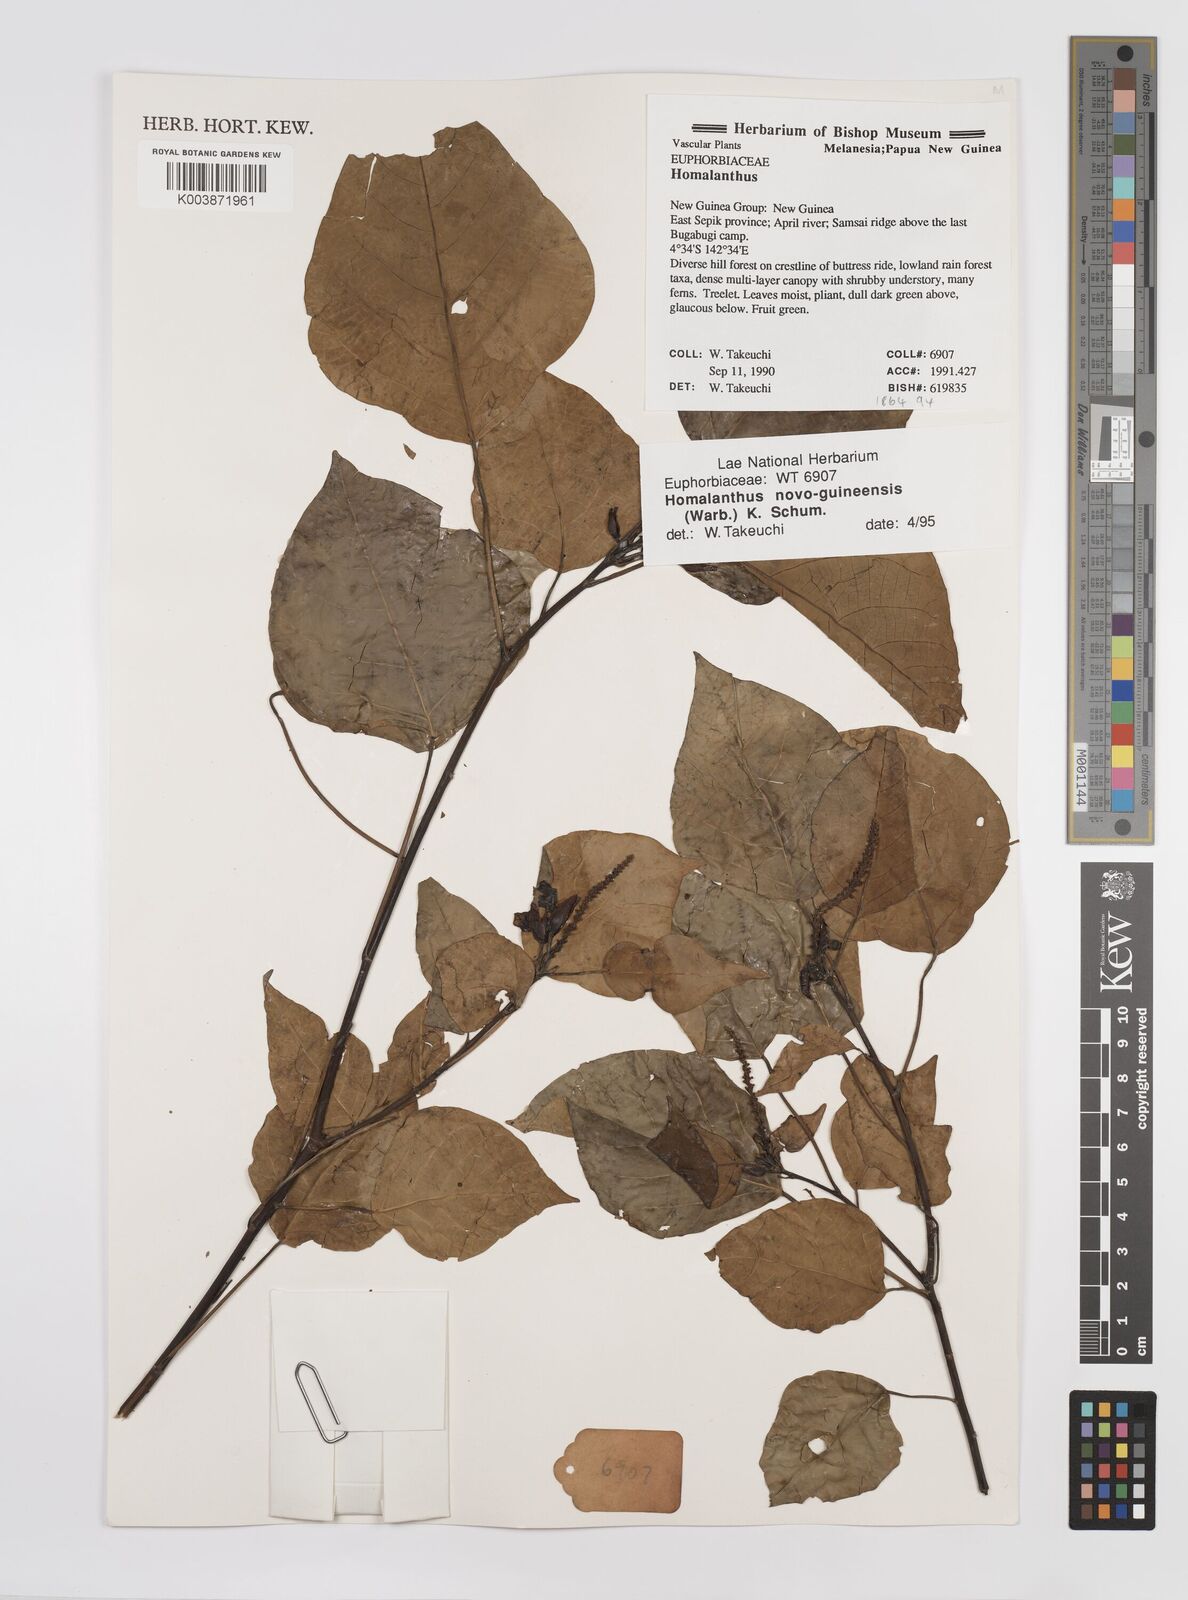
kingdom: Plantae
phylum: Tracheophyta
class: Magnoliopsida
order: Malpighiales
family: Euphorbiaceae
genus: Homalanthus
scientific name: Homalanthus novoguineensis
